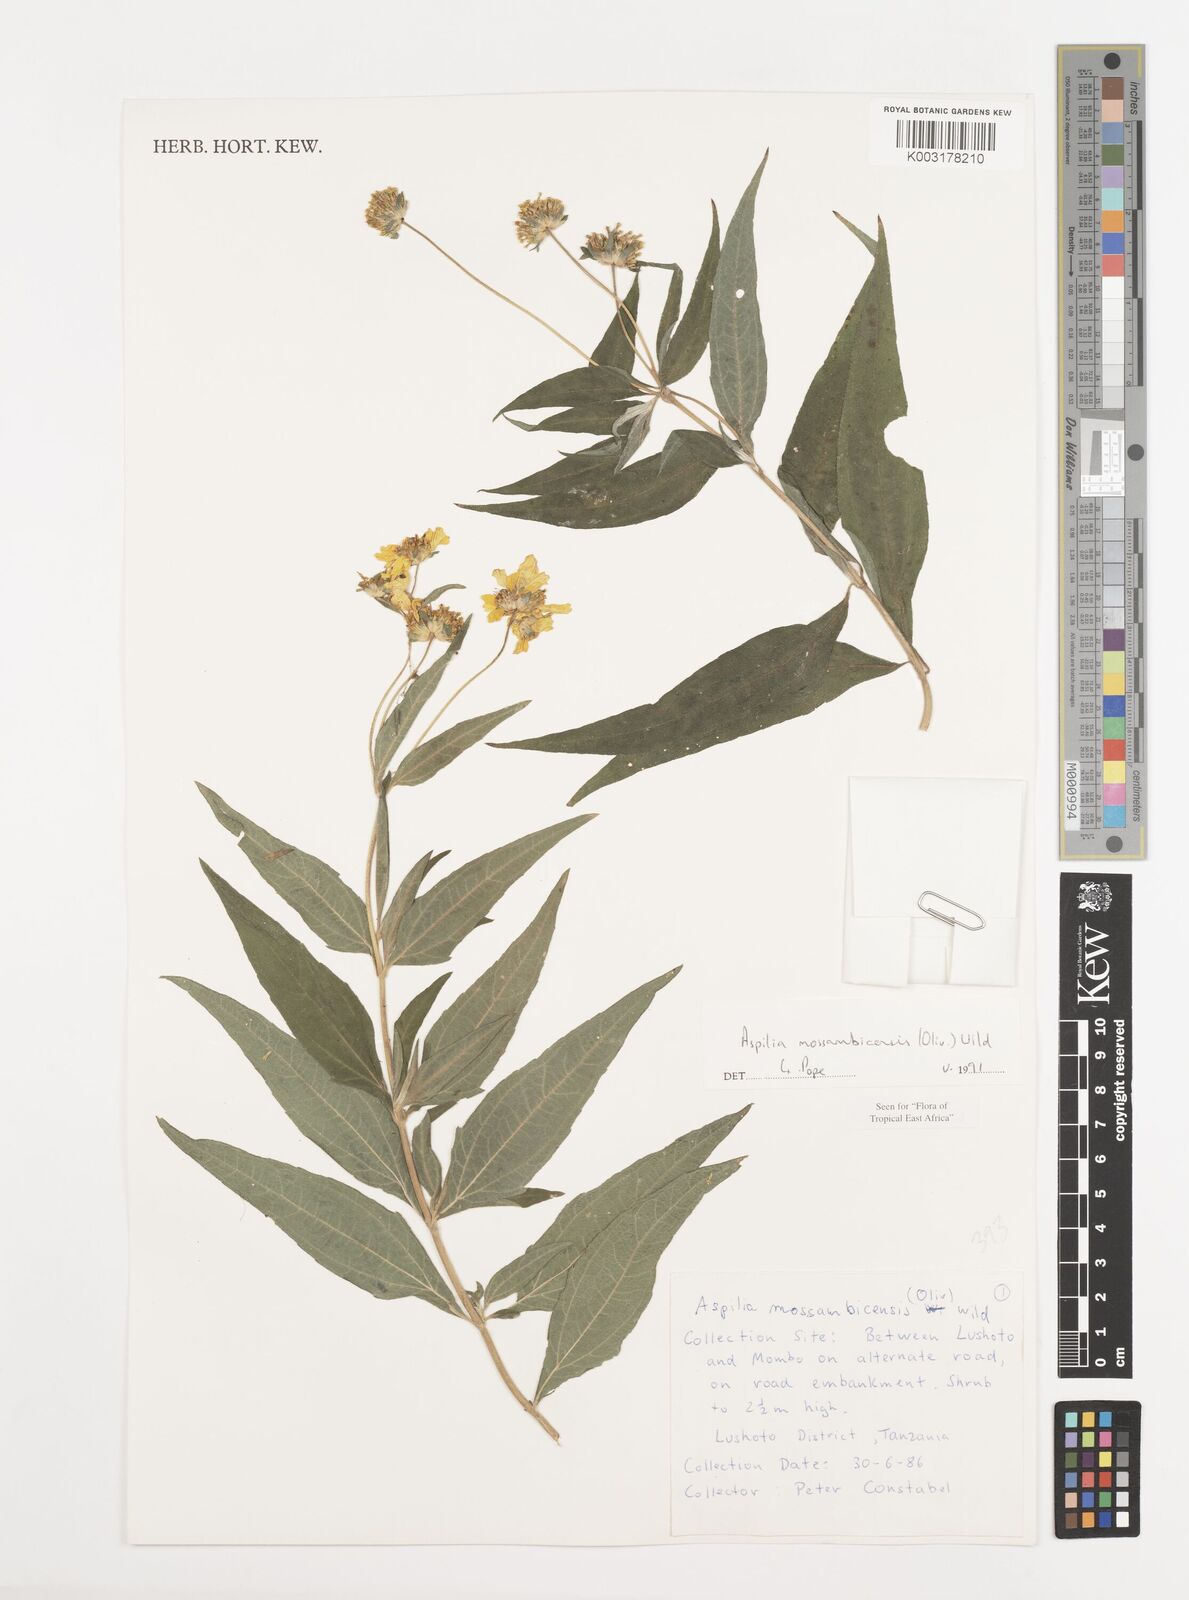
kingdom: Plantae
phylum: Tracheophyta
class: Magnoliopsida
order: Asterales
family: Asteraceae
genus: Aspilia
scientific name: Aspilia mossambicensis
